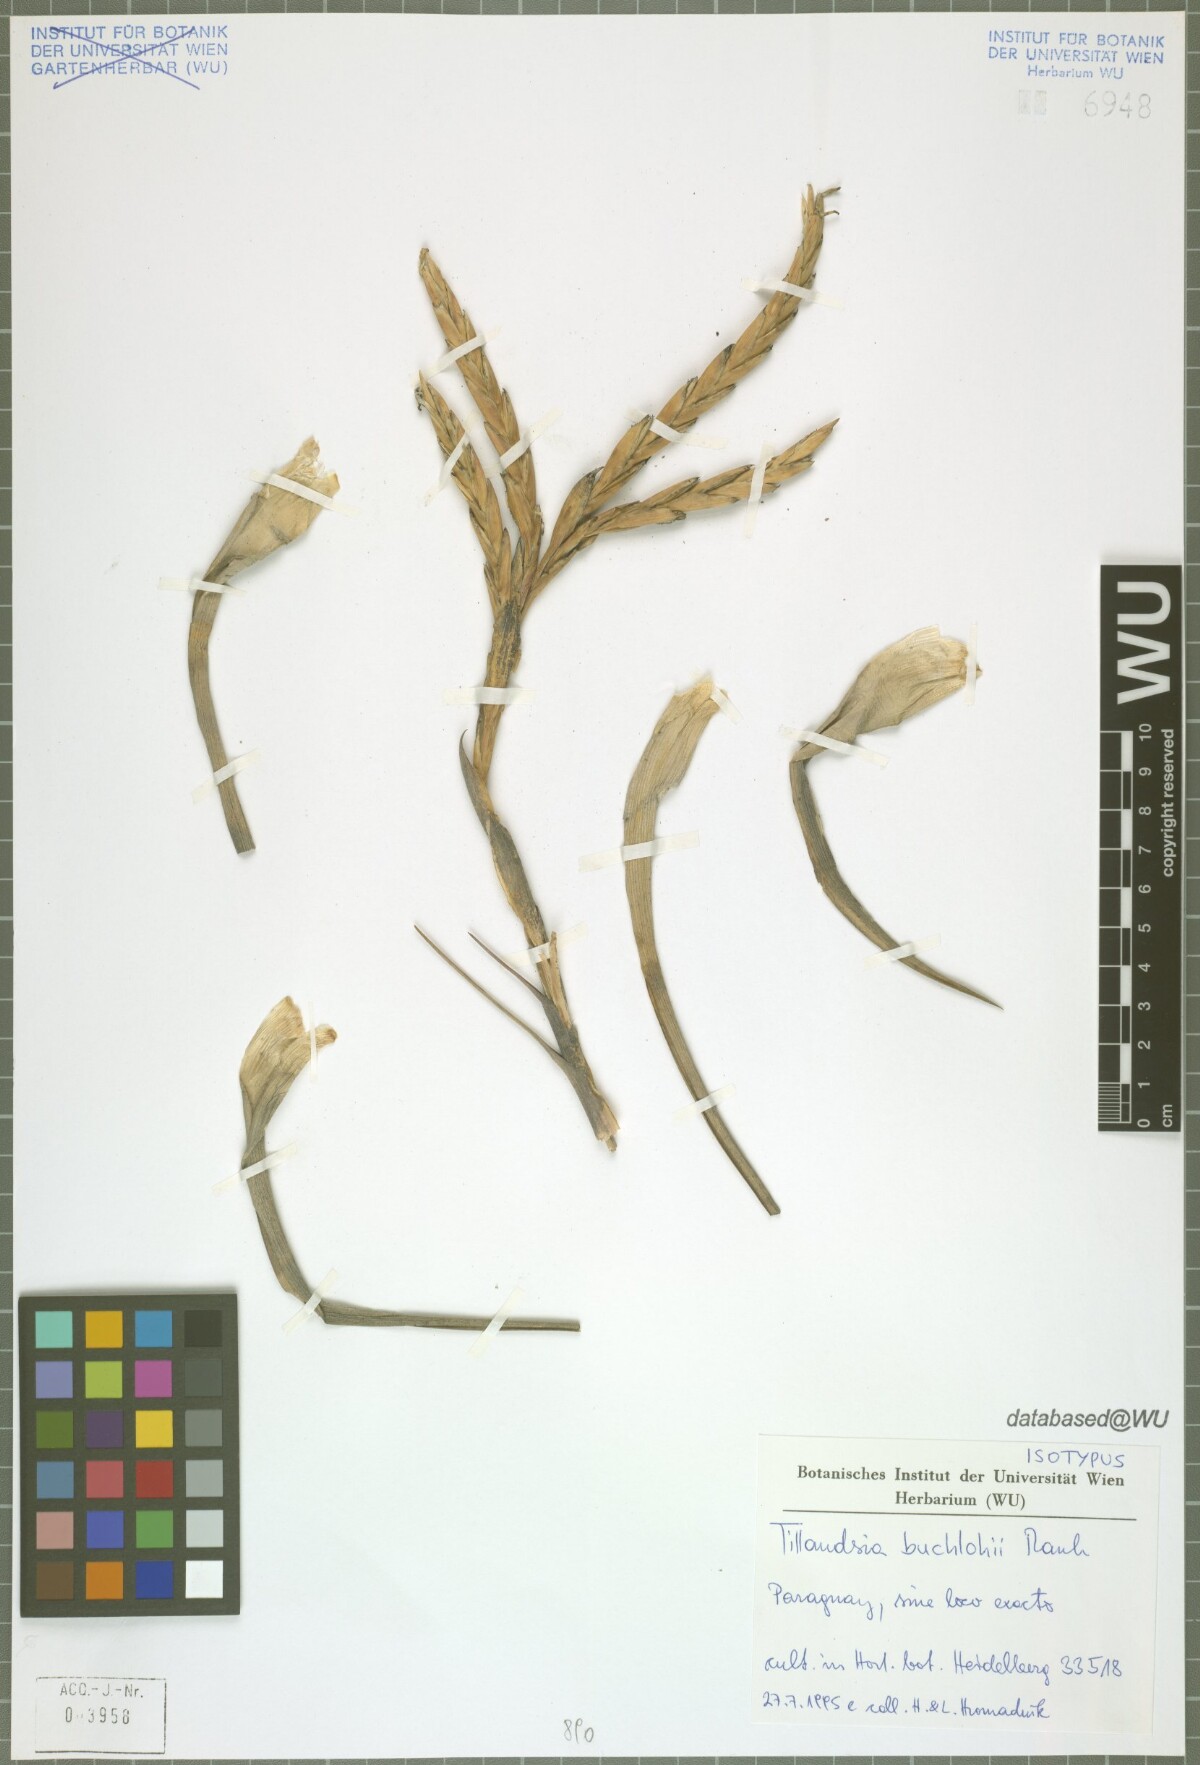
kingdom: Plantae
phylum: Tracheophyta
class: Liliopsida
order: Poales
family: Bromeliaceae
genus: Tillandsia
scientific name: Tillandsia buchlohii
